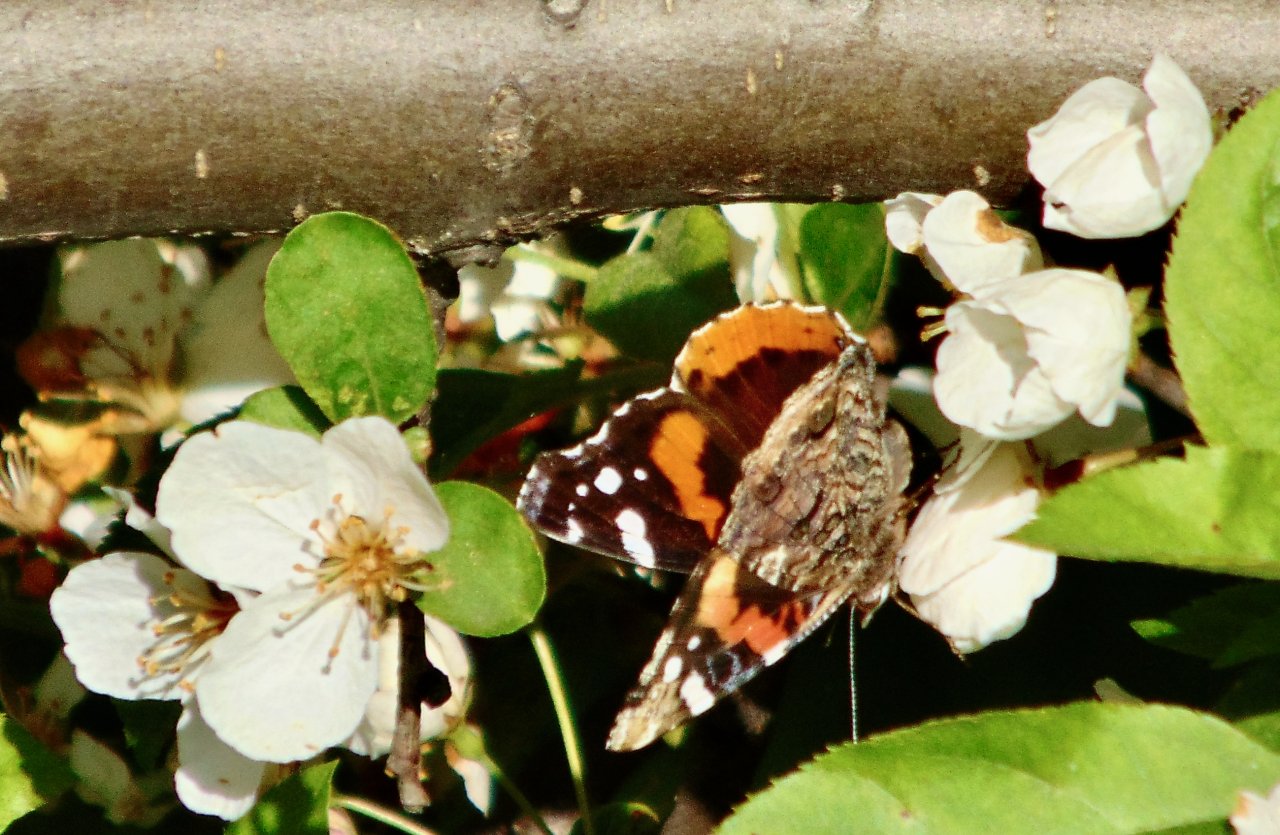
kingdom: Animalia
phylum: Arthropoda
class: Insecta
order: Lepidoptera
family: Nymphalidae
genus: Vanessa
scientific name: Vanessa atalanta
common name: Red Admiral
